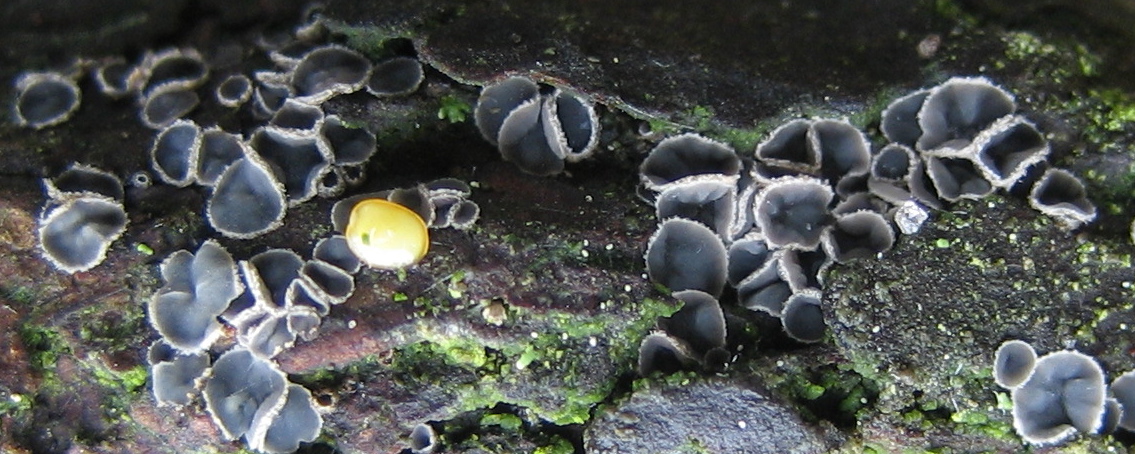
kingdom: Fungi
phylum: Ascomycota
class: Leotiomycetes
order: Helotiales
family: Dermateaceae
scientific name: Dermateaceae
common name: gråskivefamilien
